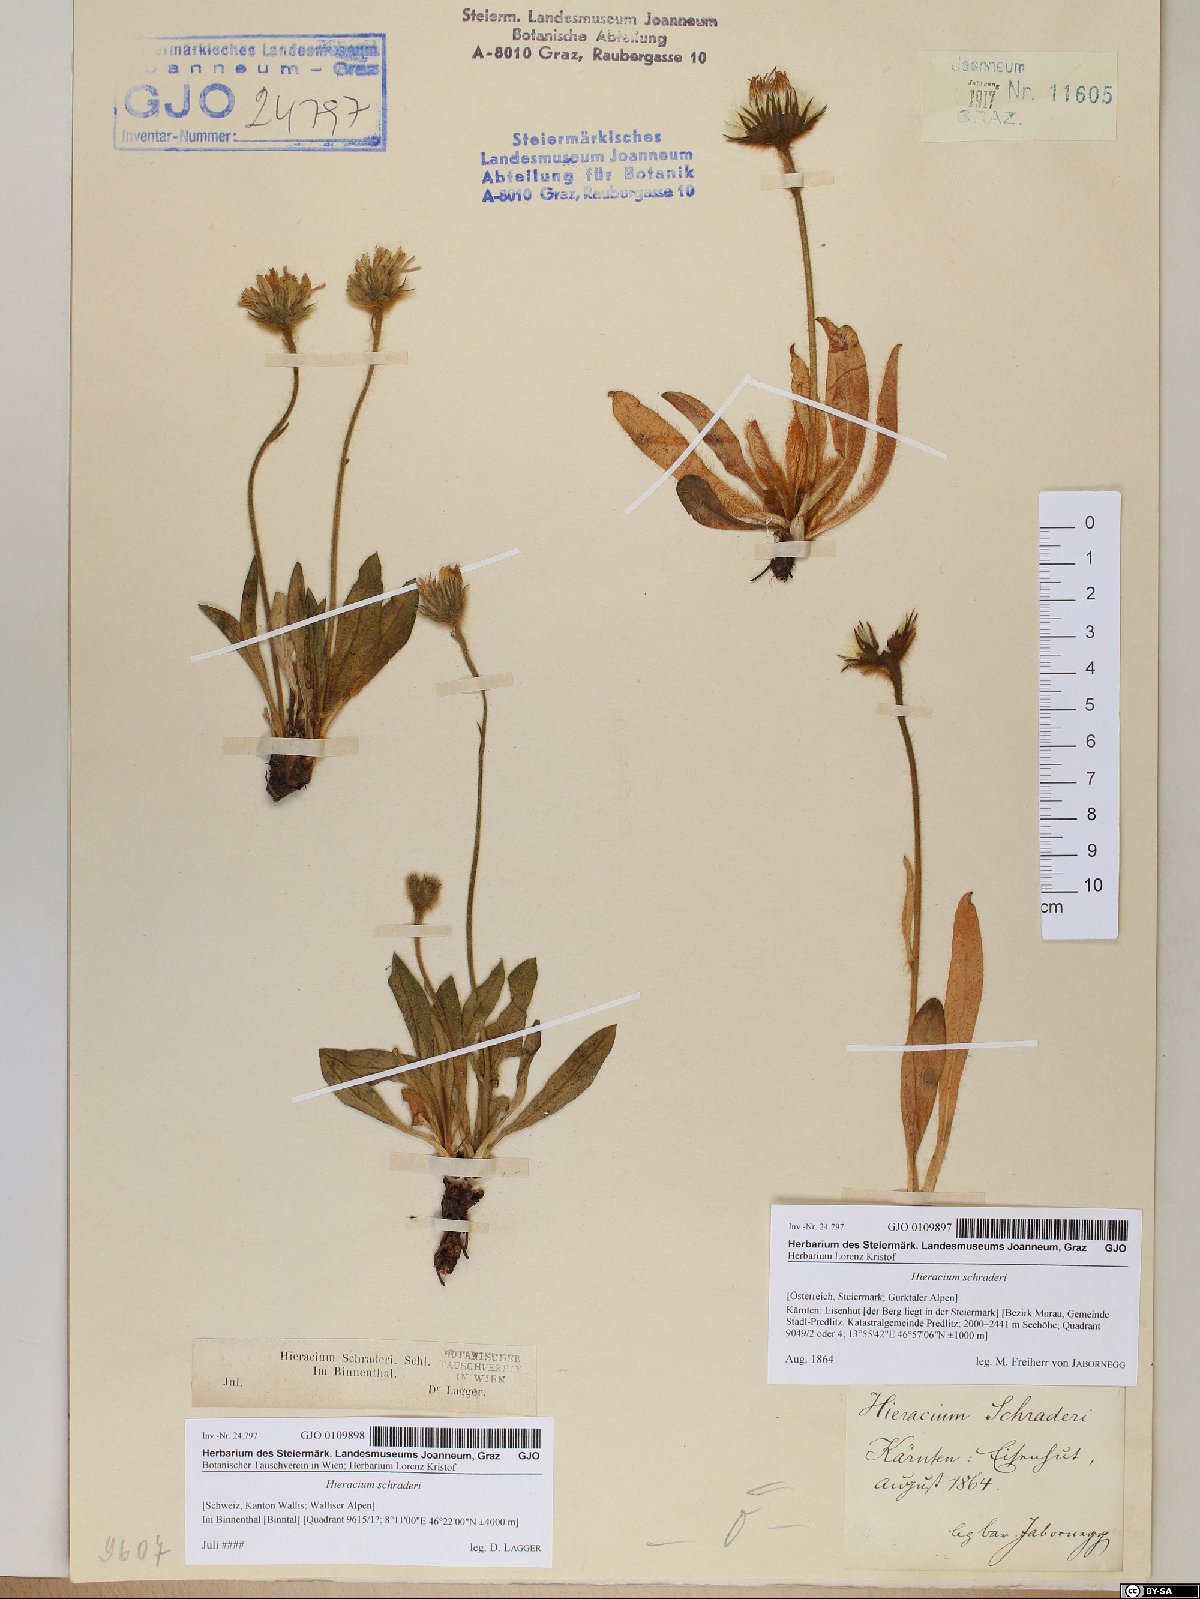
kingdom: Plantae
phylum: Tracheophyta
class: Magnoliopsida
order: Asterales
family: Asteraceae
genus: Hieracium
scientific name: Hieracium schraderi
